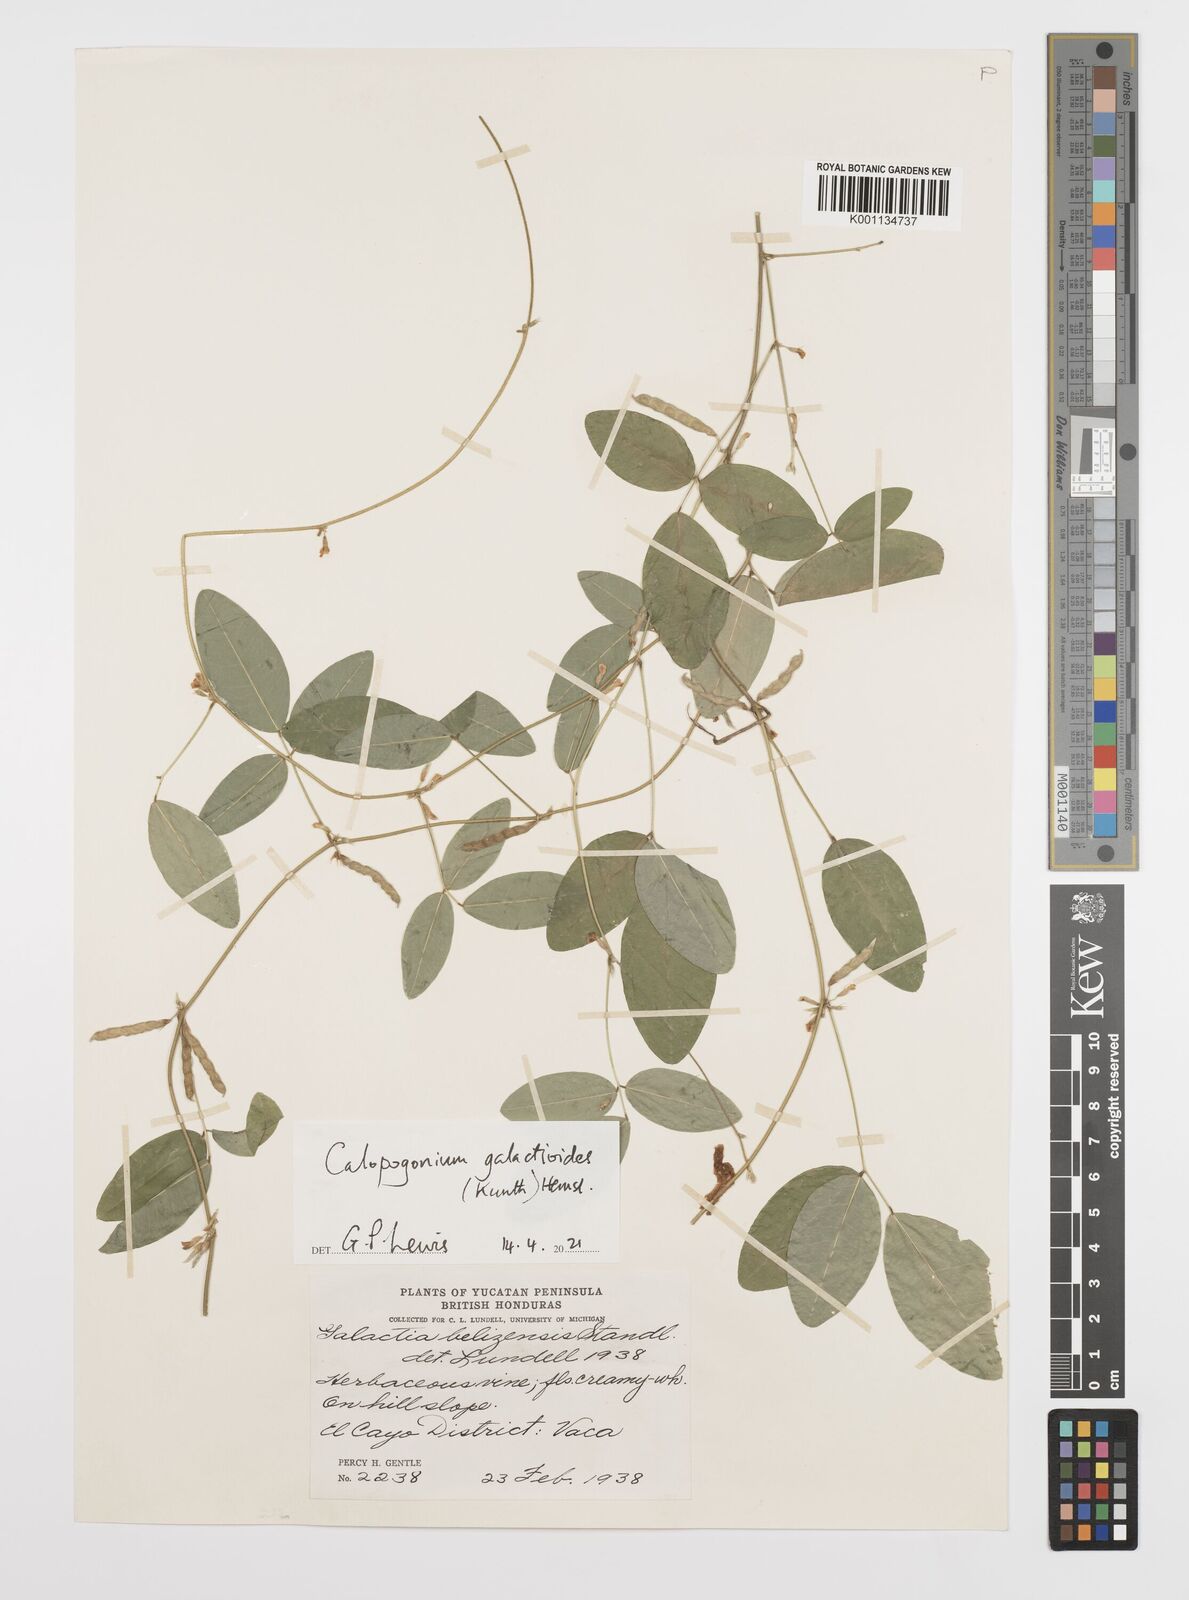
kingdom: Plantae
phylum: Tracheophyta
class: Magnoliopsida
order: Fabales
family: Fabaceae
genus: Calopogonium
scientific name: Calopogonium galactioides
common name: Legume
